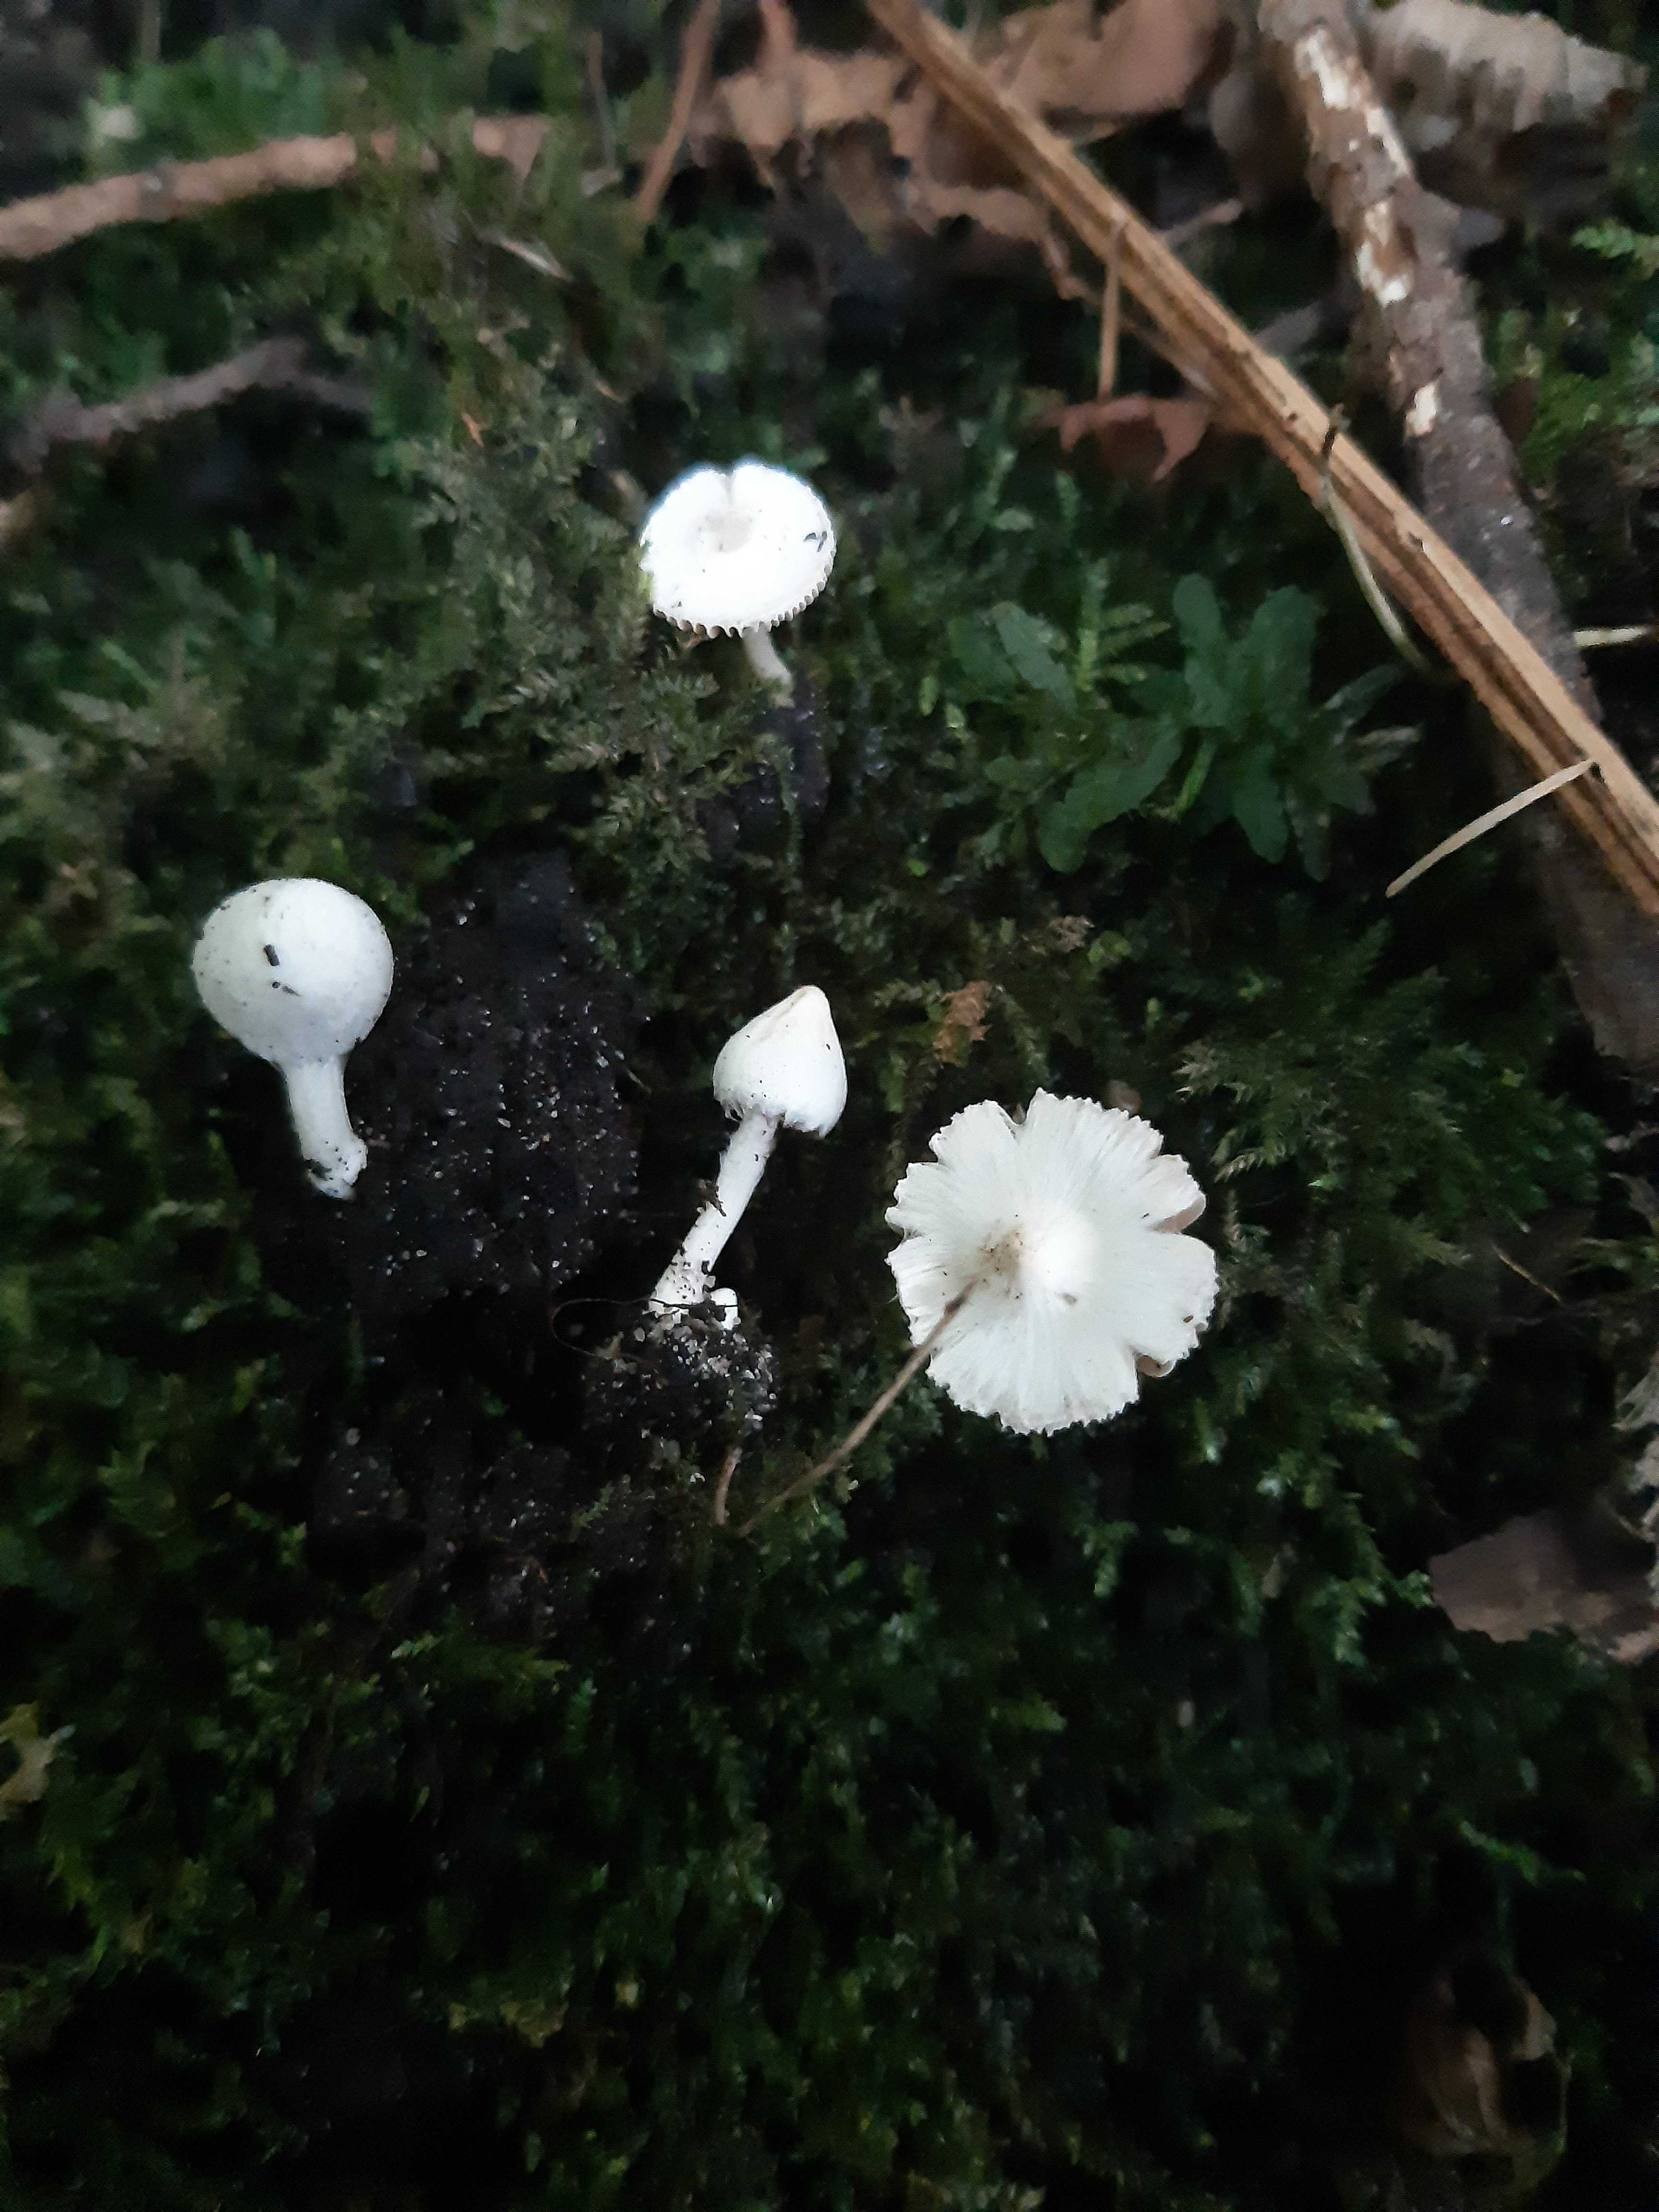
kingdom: Fungi
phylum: Basidiomycota
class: Agaricomycetes
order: Agaricales
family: Inocybaceae
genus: Inocybe
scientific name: Inocybe
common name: trævlhat
